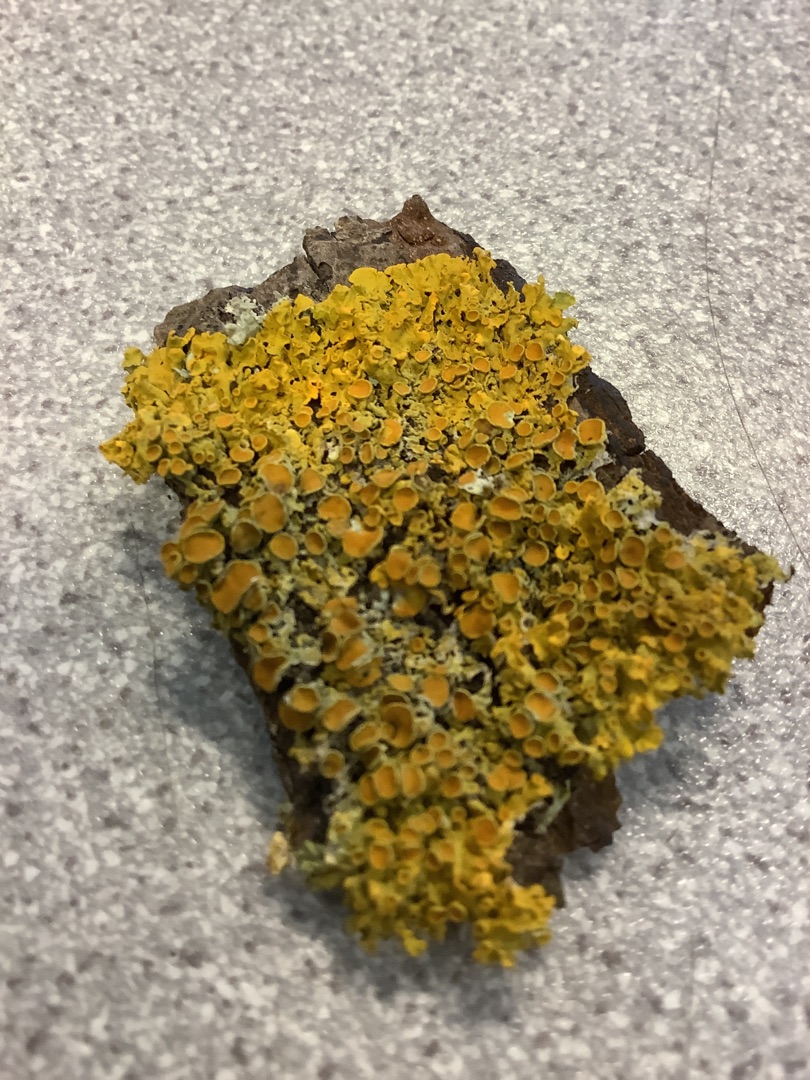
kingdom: Fungi
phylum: Ascomycota
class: Lecanoromycetes
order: Teloschistales
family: Teloschistaceae
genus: Xanthoria
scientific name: Xanthoria parietina
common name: Almindelig væggelav
